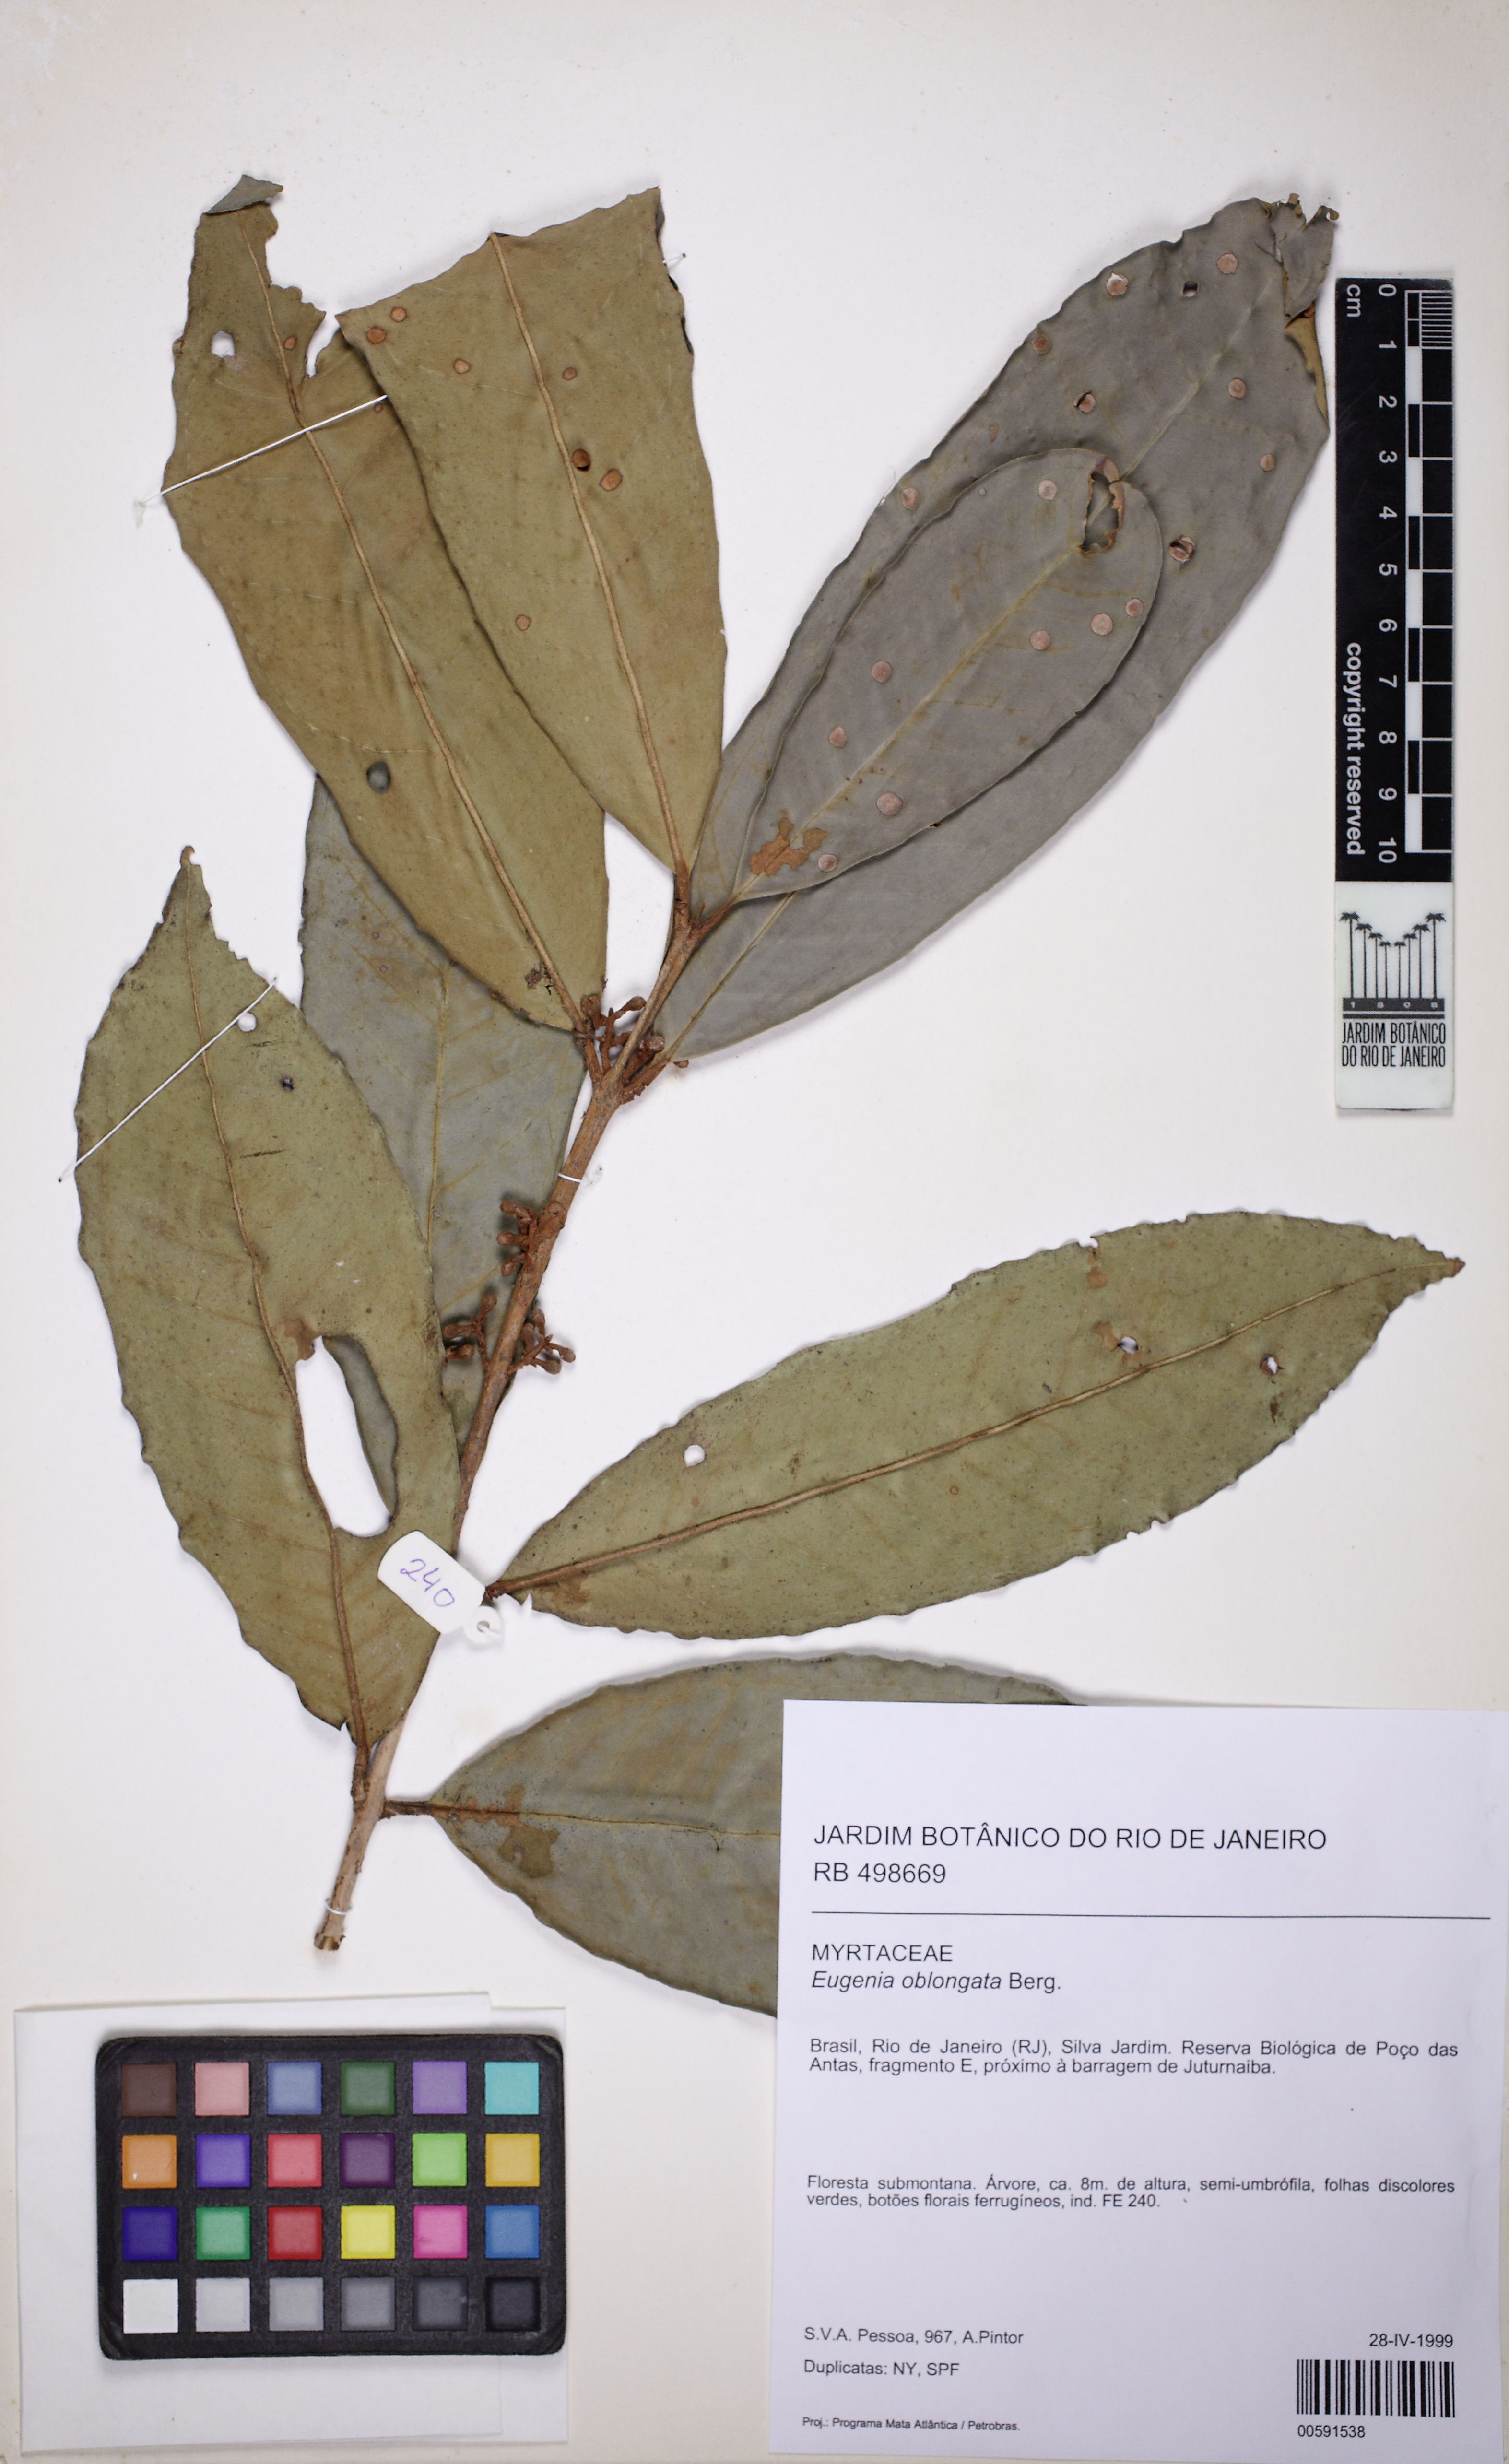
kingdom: Plantae
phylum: Tracheophyta
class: Magnoliopsida
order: Myrtales
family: Myrtaceae
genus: Eugenia
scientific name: Eugenia oblongata
